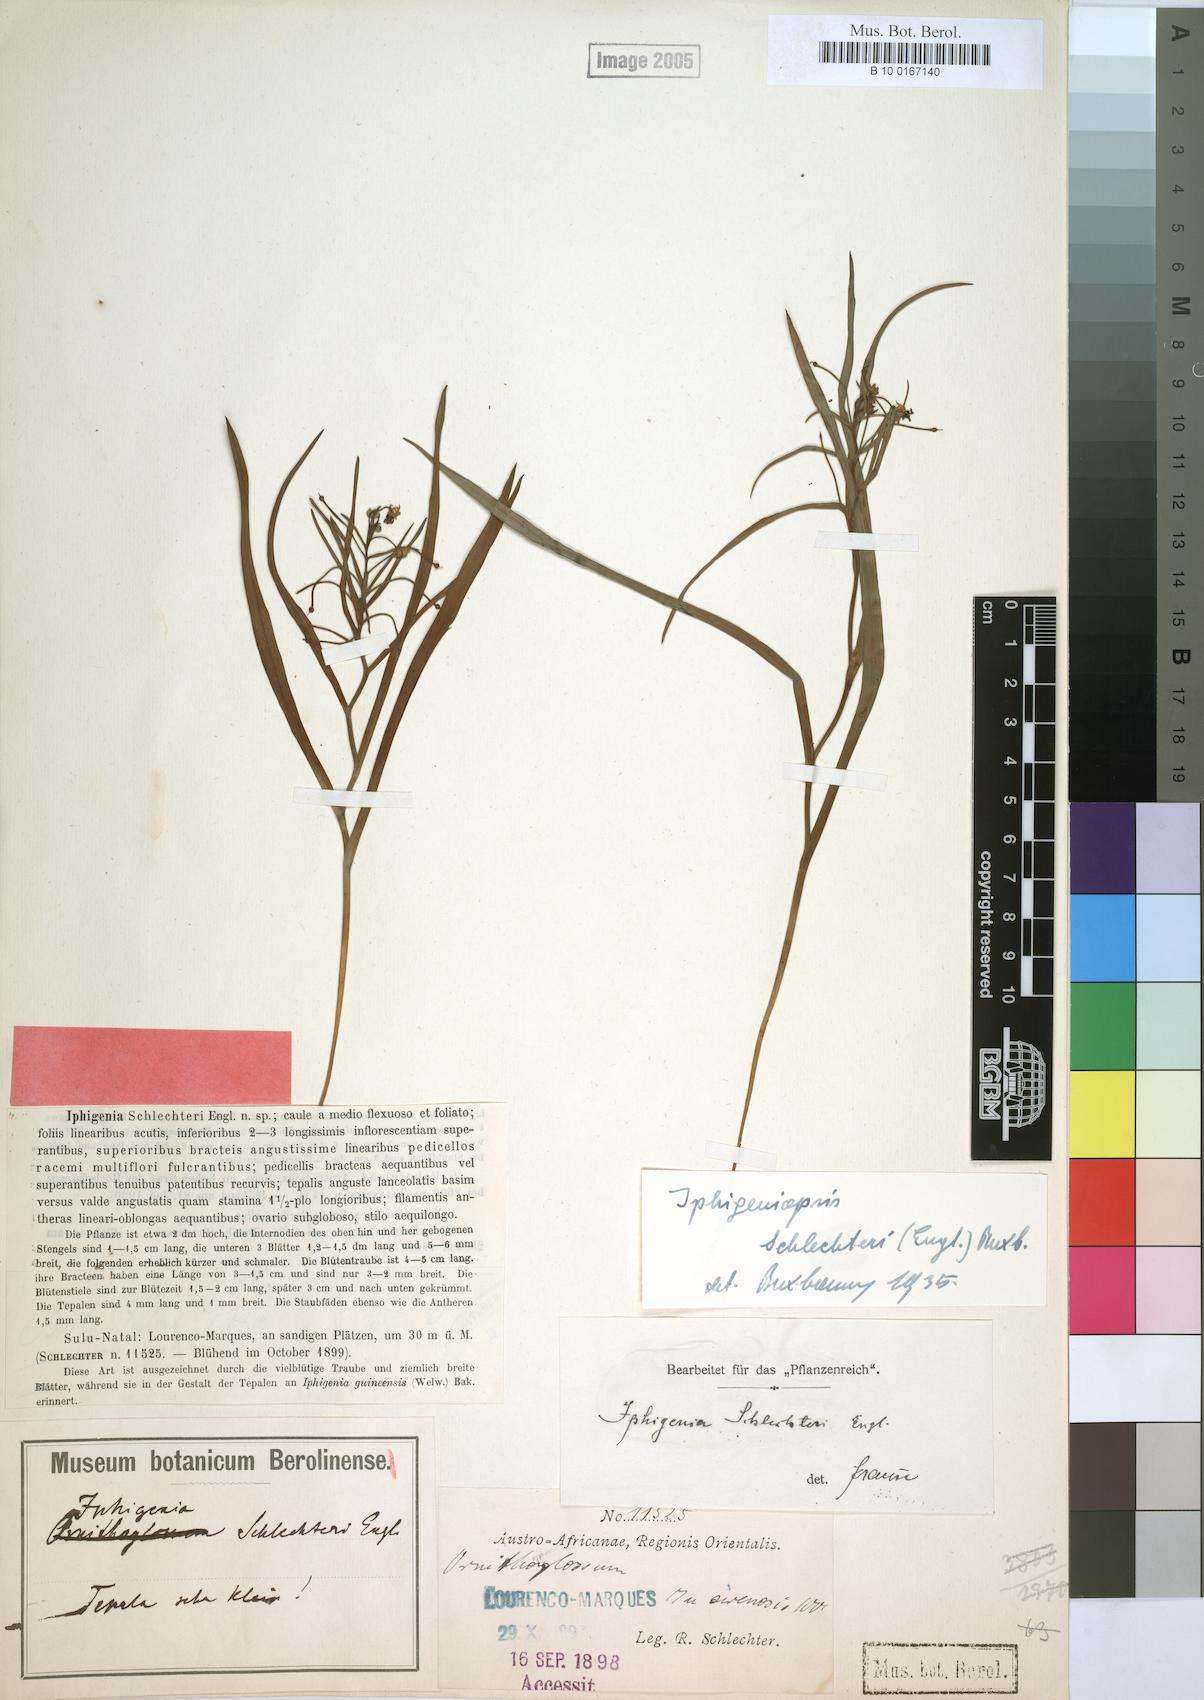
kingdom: Plantae
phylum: Tracheophyta
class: Liliopsida
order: Liliales
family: Colchicaceae
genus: Camptorrhiza
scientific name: Camptorrhiza strumosa
